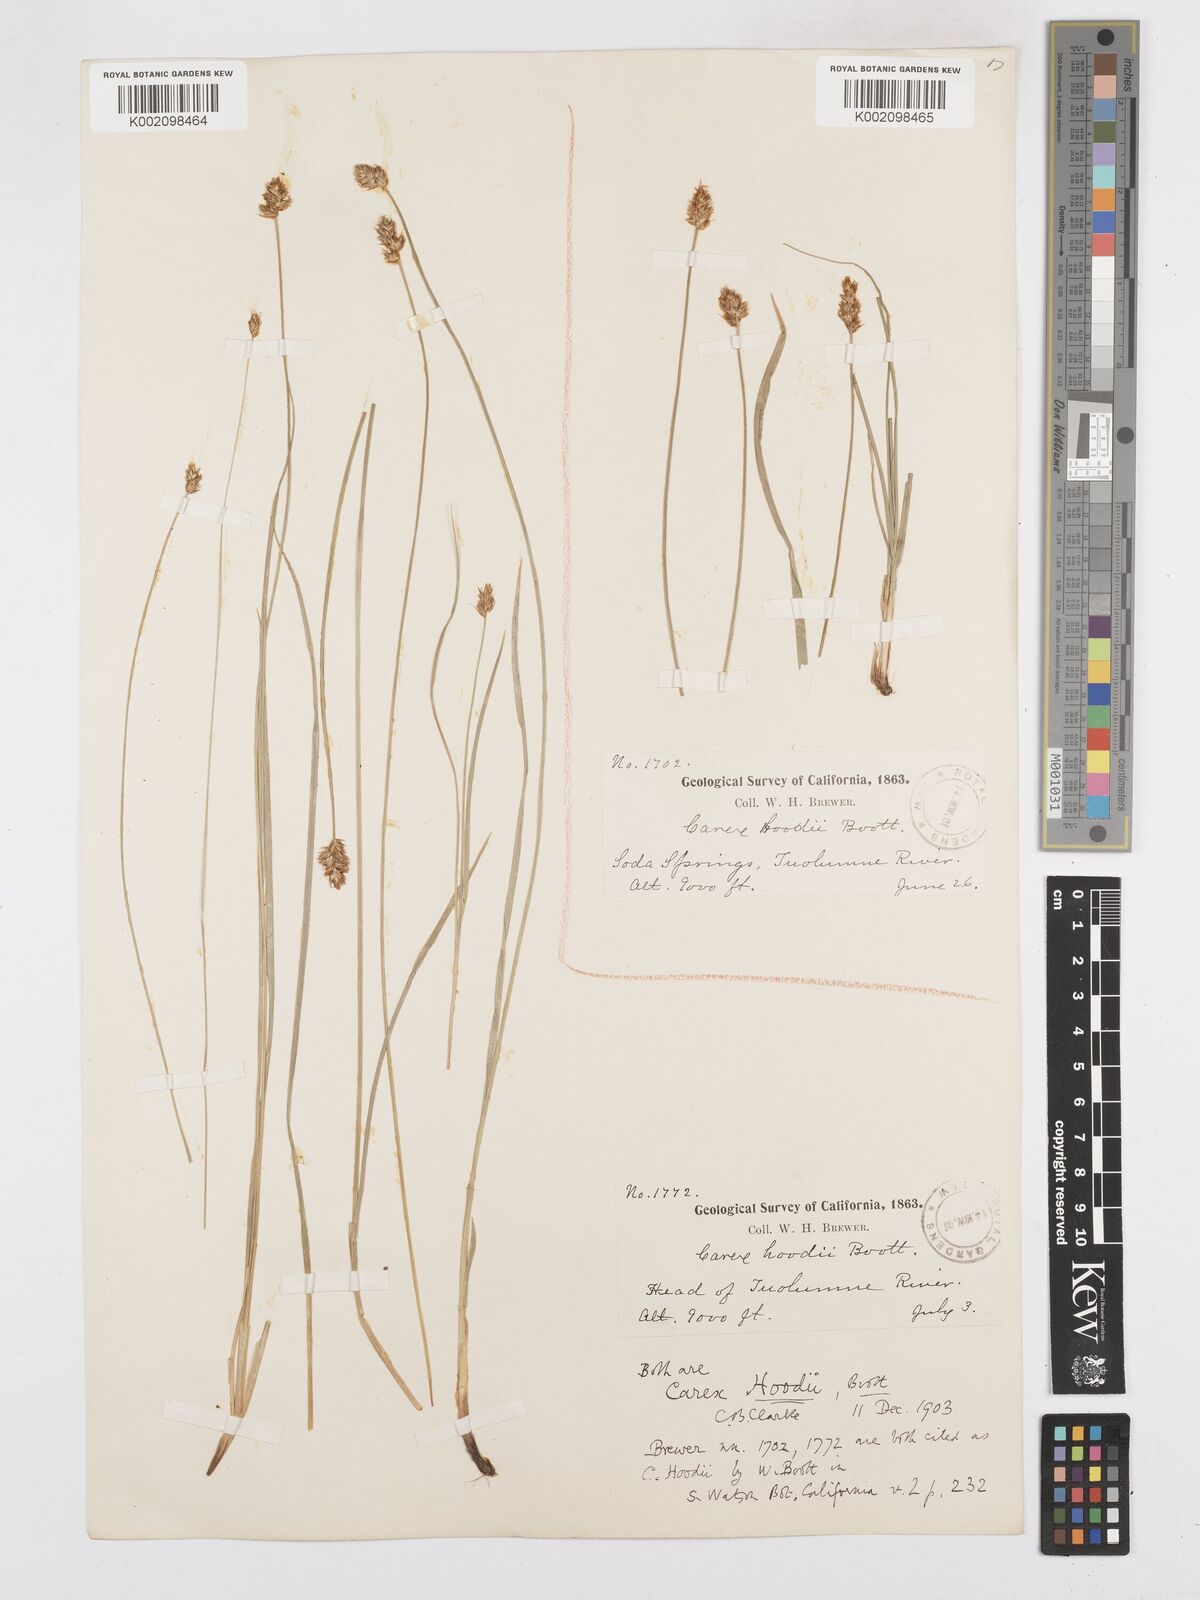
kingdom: Plantae
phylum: Tracheophyta
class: Liliopsida
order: Poales
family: Cyperaceae
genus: Carex
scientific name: Carex hoodii
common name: Hood's sedge
